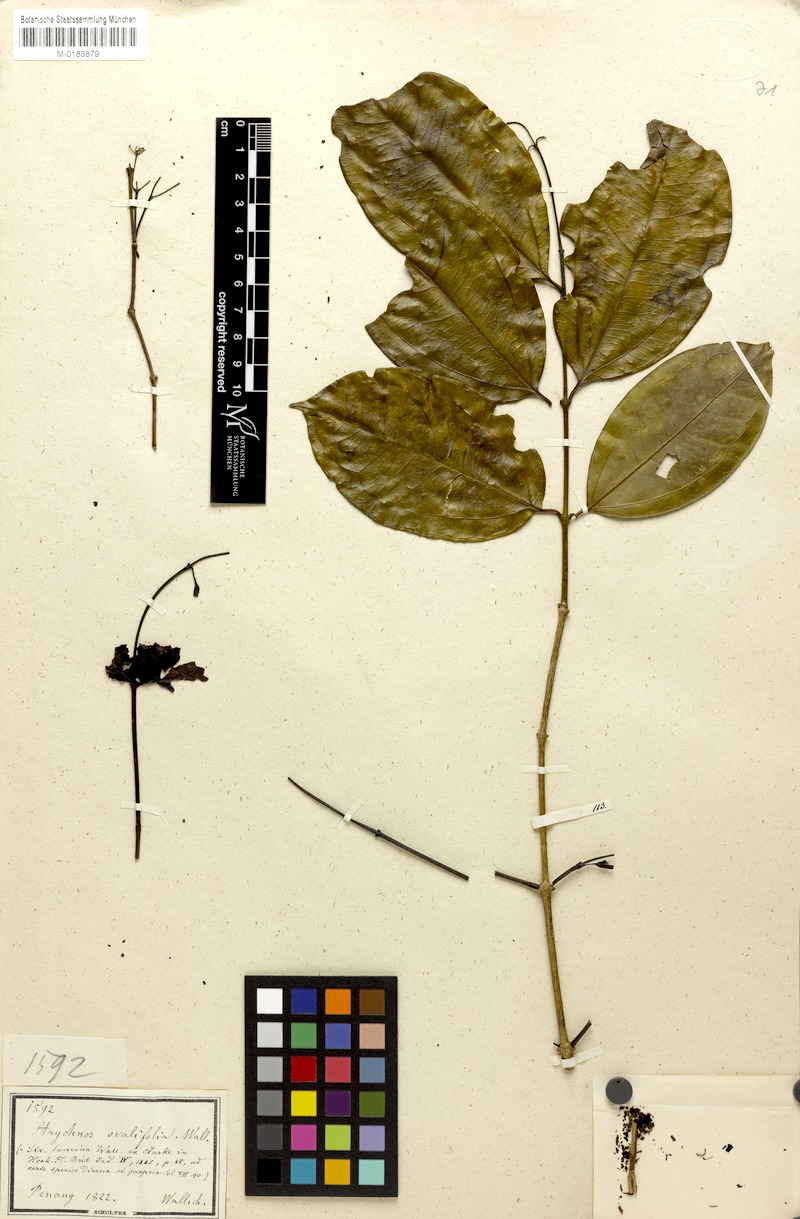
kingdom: Plantae
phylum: Tracheophyta
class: Magnoliopsida
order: Gentianales
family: Loganiaceae
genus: Strychnos
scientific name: Strychnos ignatii
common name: Ignatius-bean
